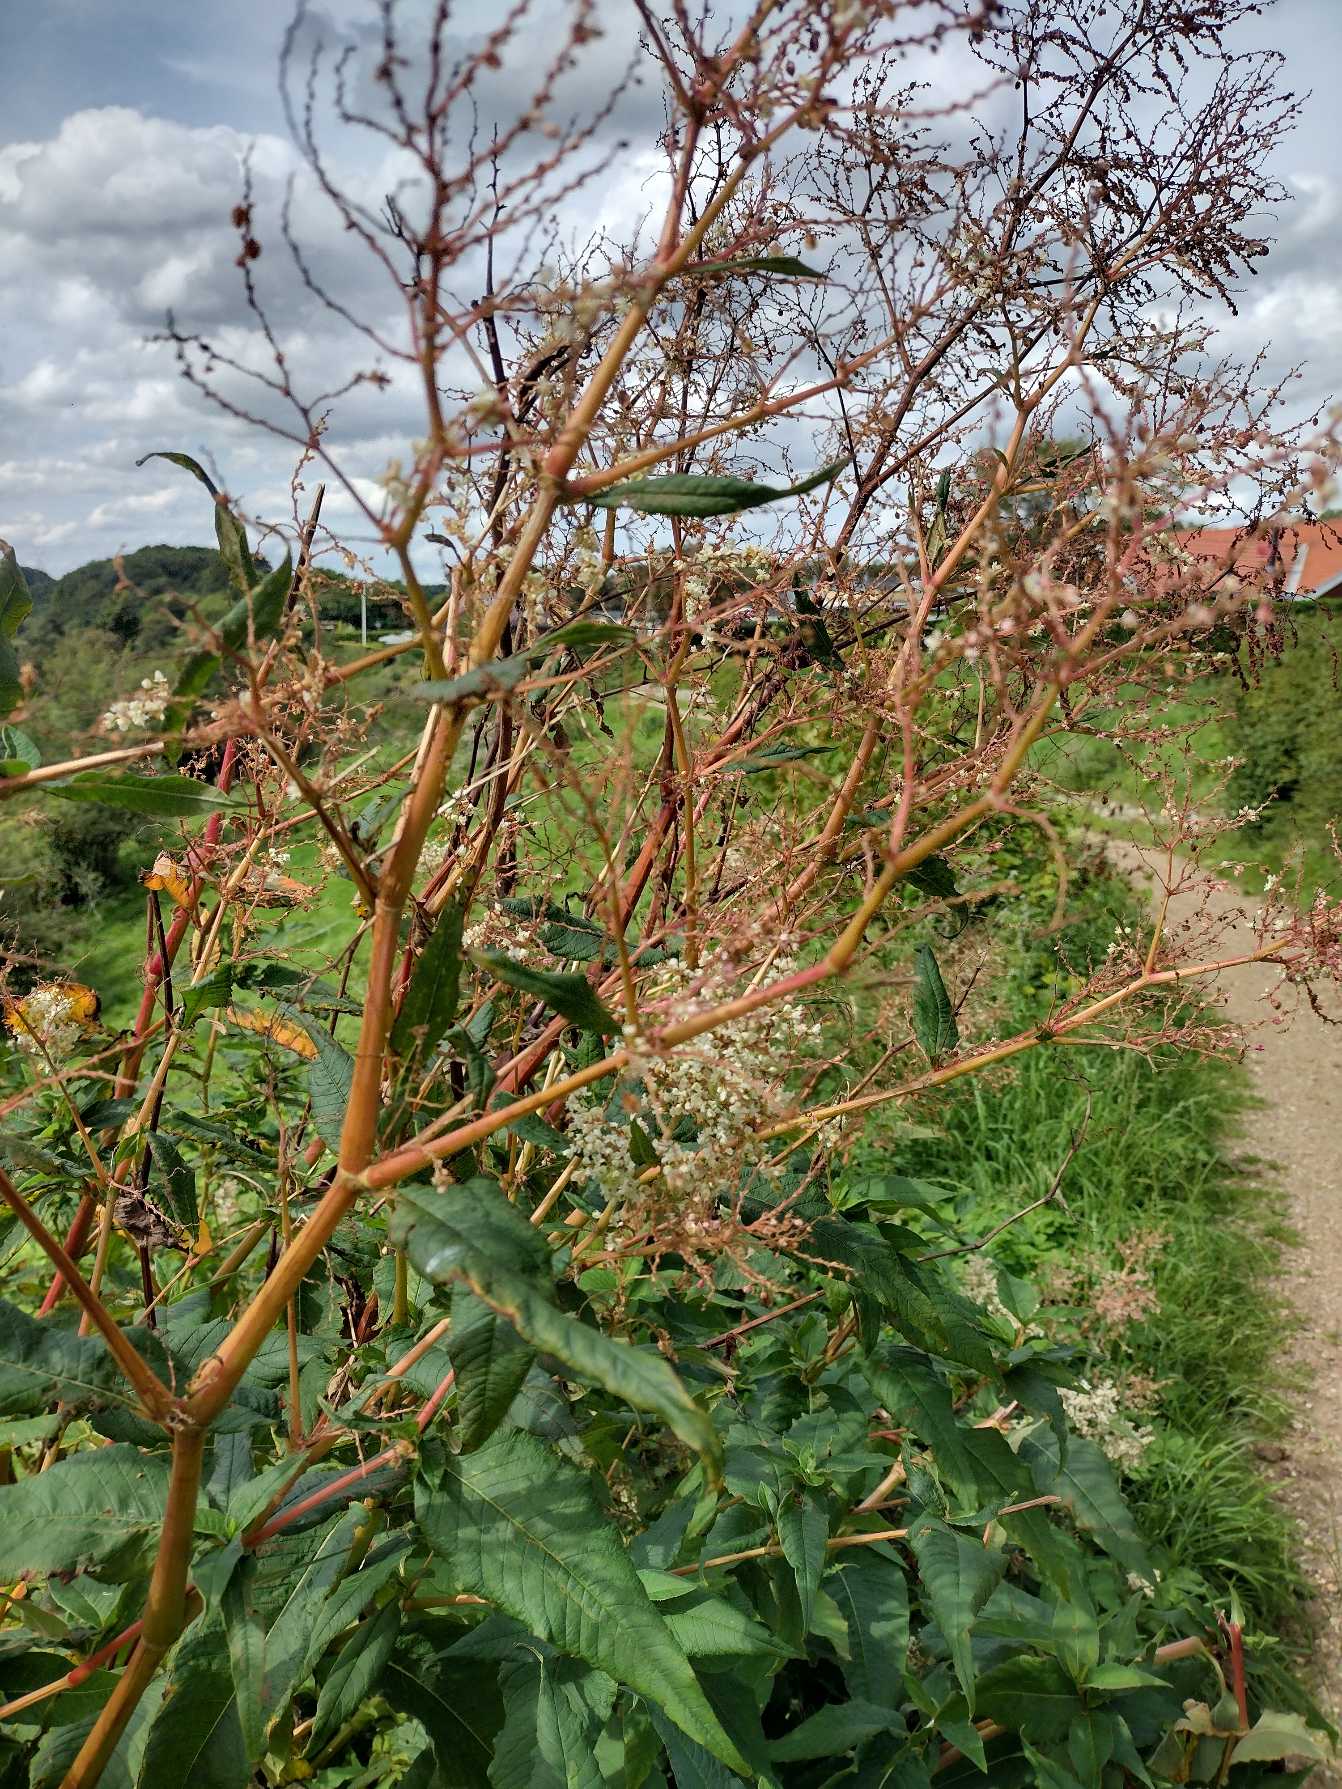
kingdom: Plantae
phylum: Tracheophyta
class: Magnoliopsida
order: Caryophyllales
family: Polygonaceae
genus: Koenigia
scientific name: Koenigia fennica
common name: Finsk pileurt
